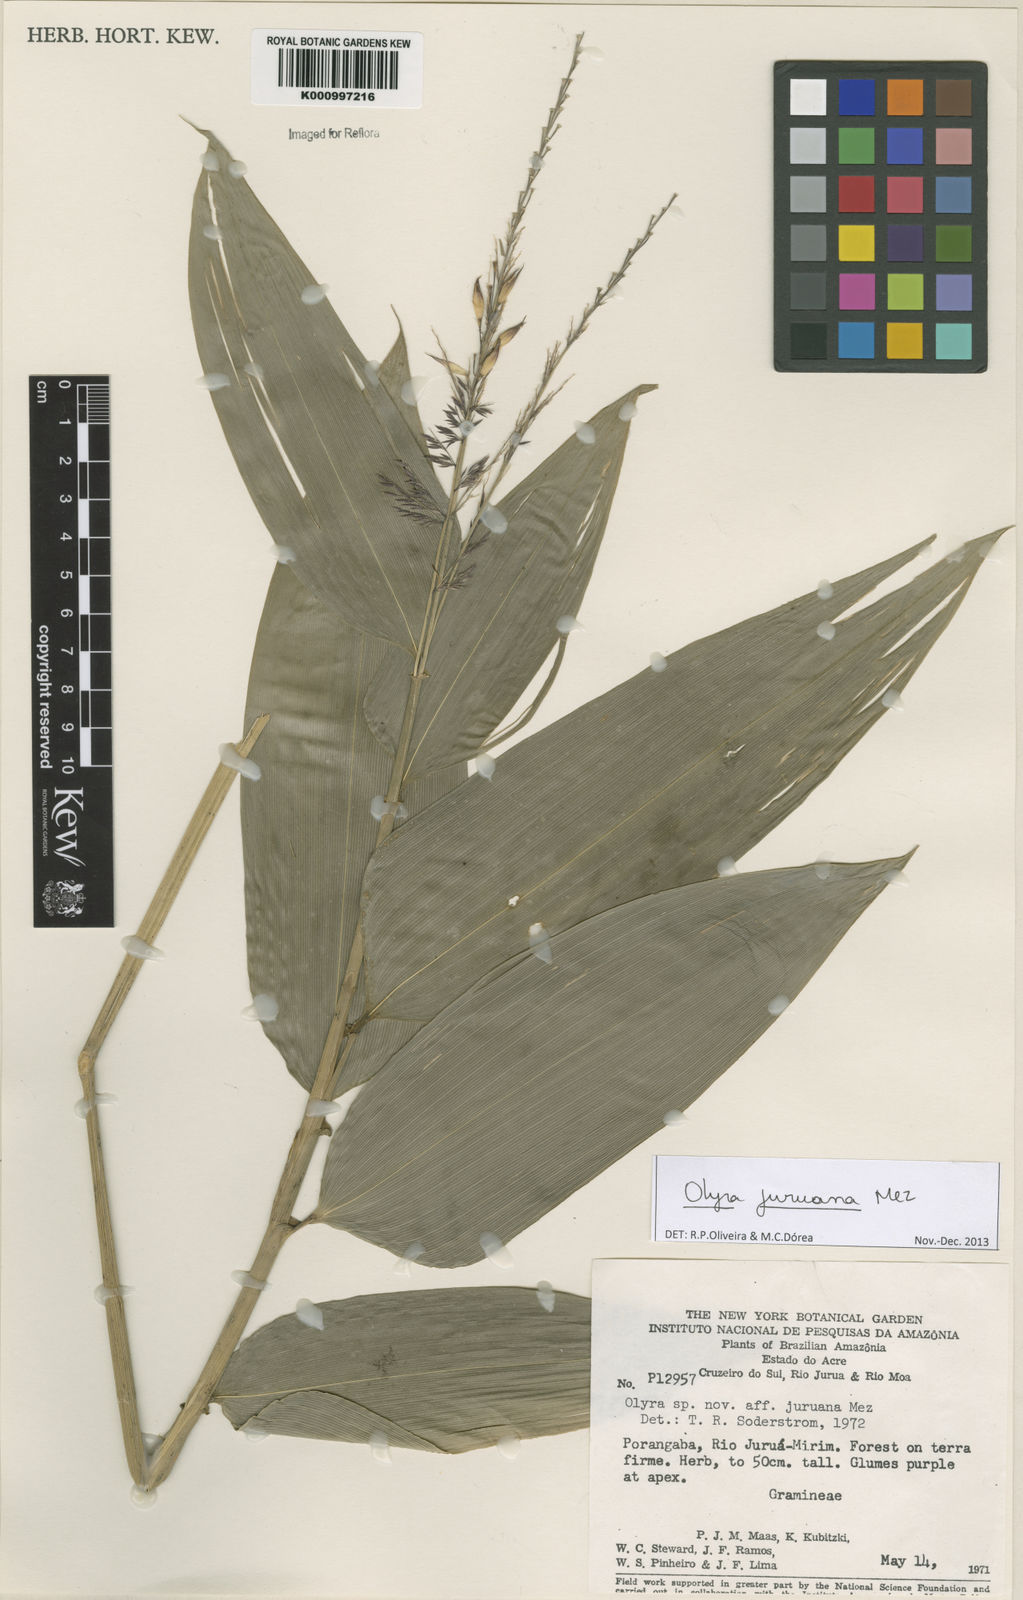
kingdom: Plantae
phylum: Tracheophyta
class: Liliopsida
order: Poales
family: Poaceae
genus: Olyra
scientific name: Olyra juruana
